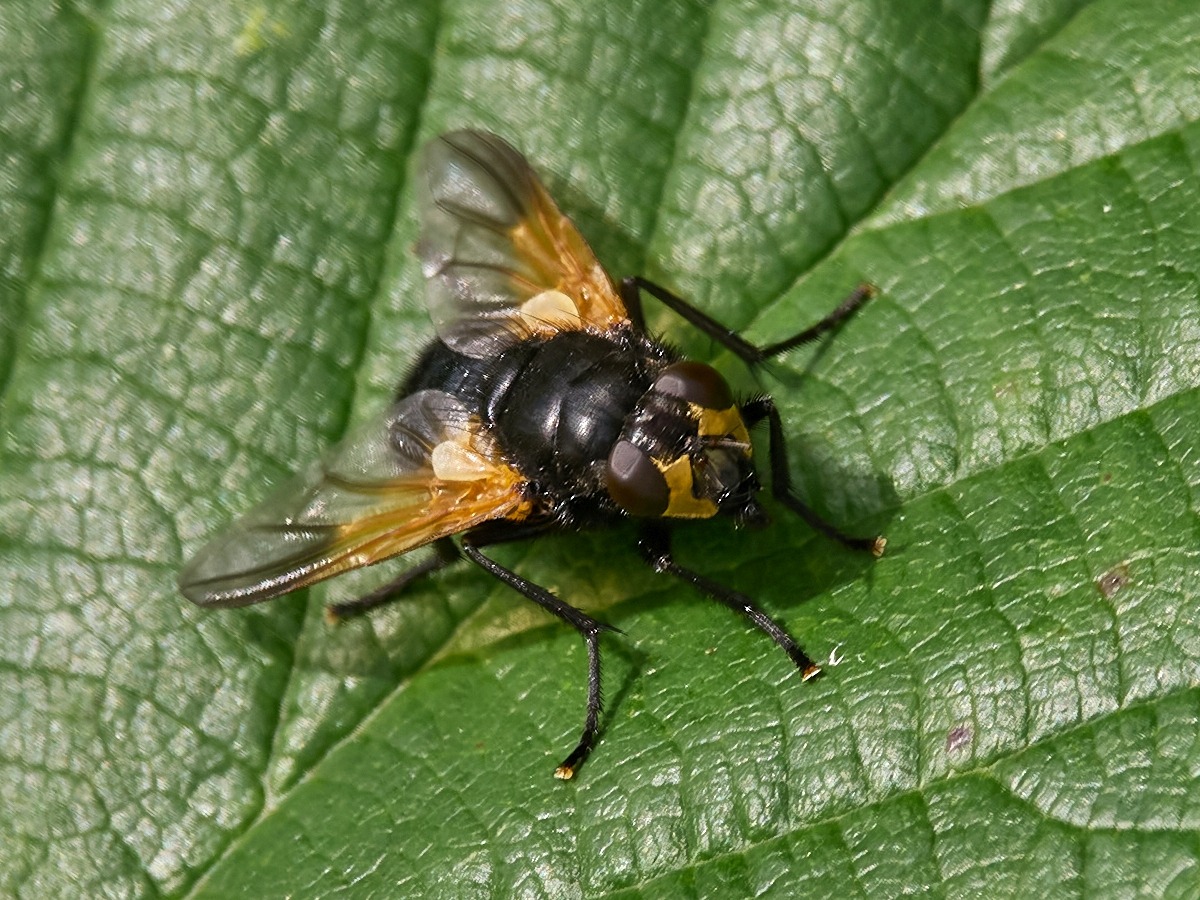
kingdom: Animalia
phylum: Arthropoda
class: Insecta
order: Diptera
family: Muscidae
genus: Mesembrina
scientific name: Mesembrina meridiana
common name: Gulvinget flue
